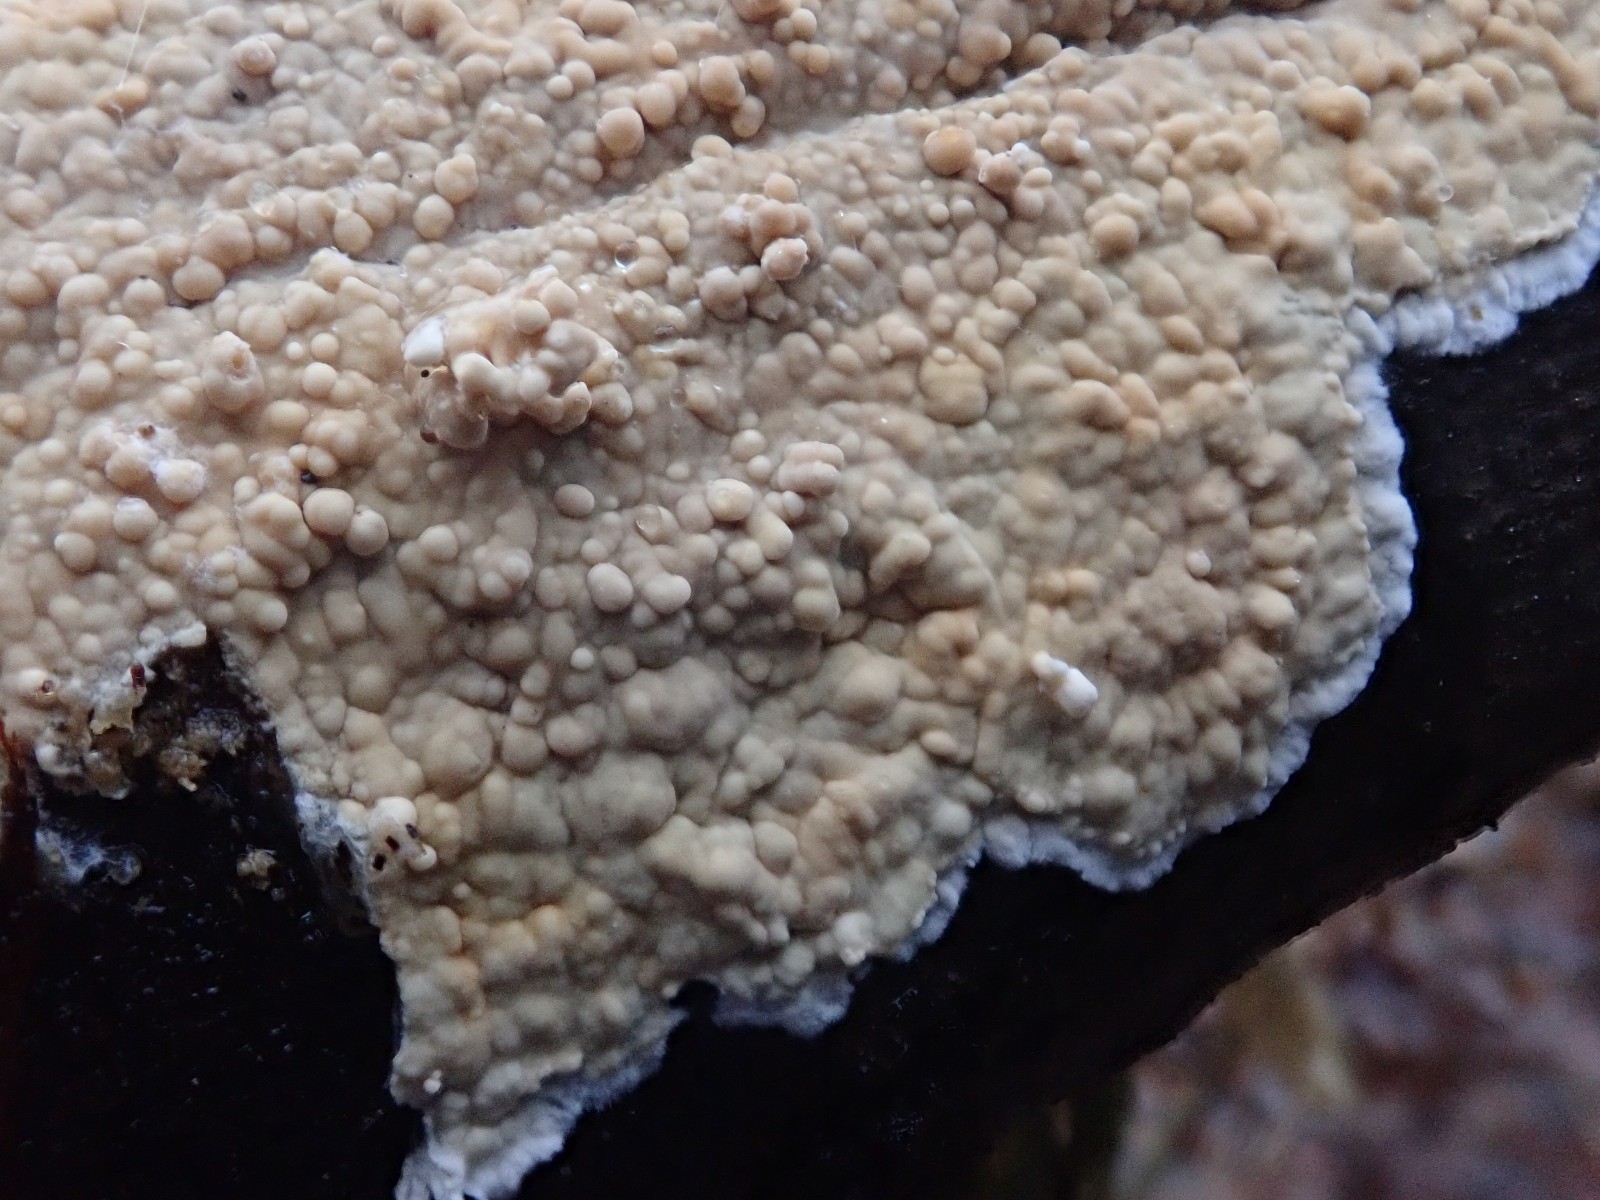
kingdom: Fungi
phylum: Basidiomycota
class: Agaricomycetes
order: Agaricales
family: Physalacriaceae
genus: Cylindrobasidium
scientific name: Cylindrobasidium evolvens
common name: sprækkehinde
